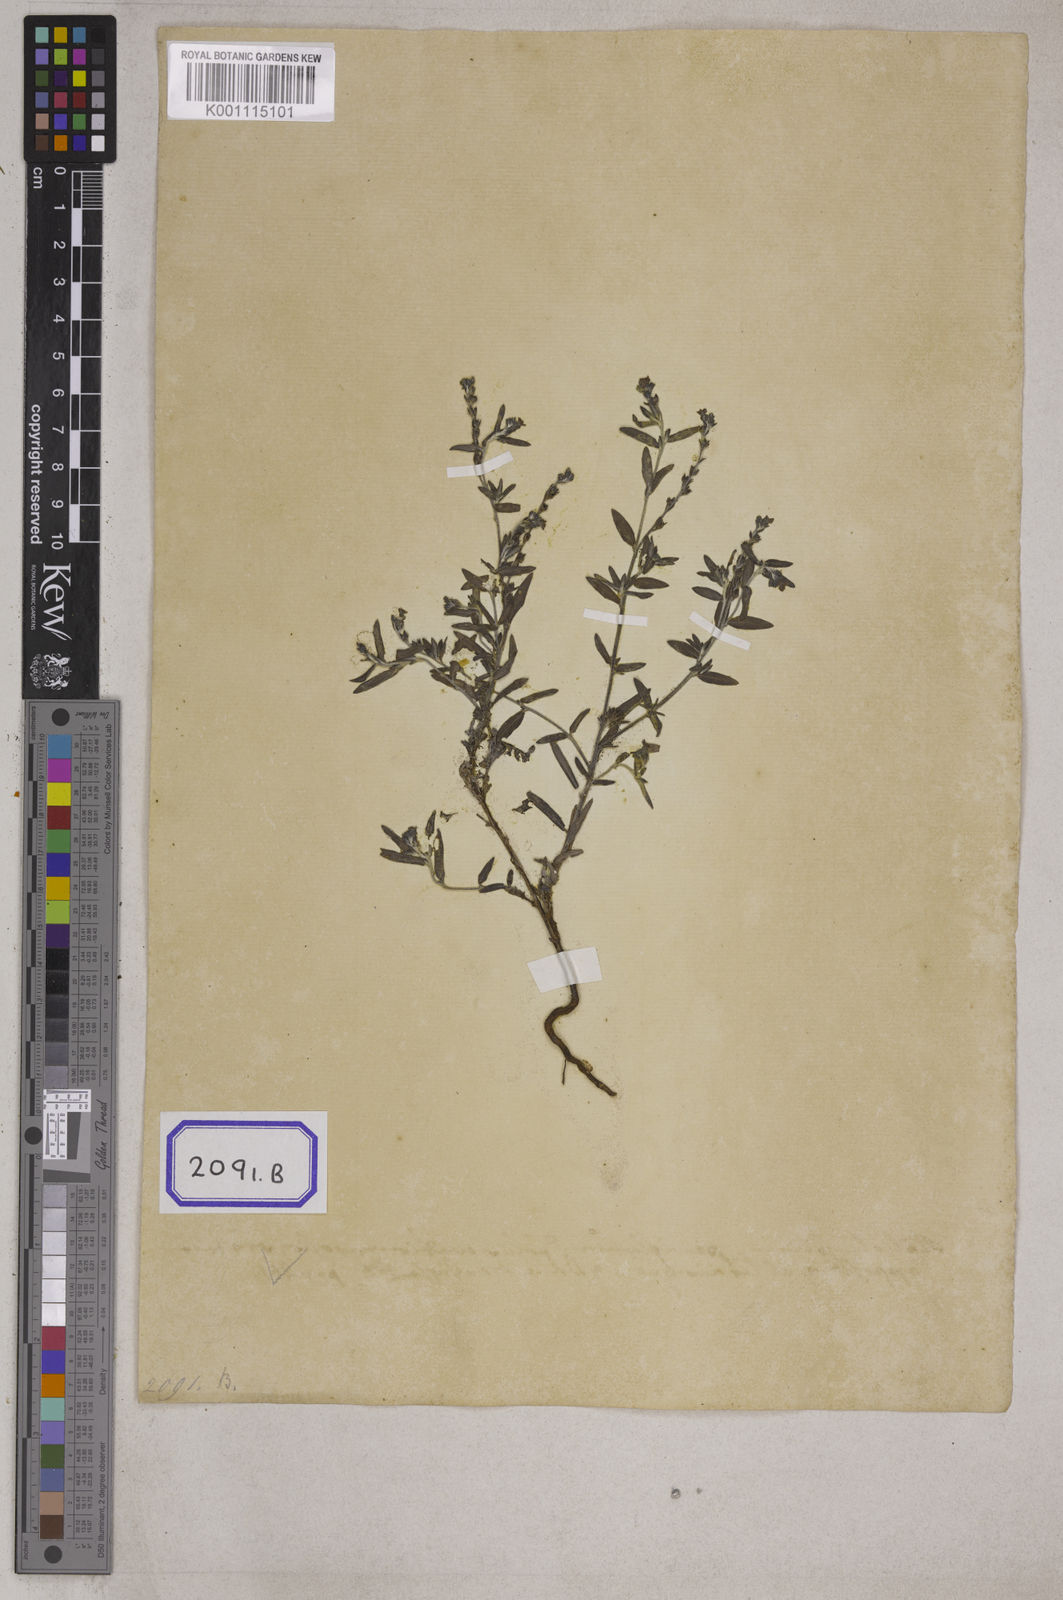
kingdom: Plantae
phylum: Tracheophyta
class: Magnoliopsida
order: Boraginales
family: Heliotropiaceae
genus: Heliotropium
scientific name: Heliotropium
